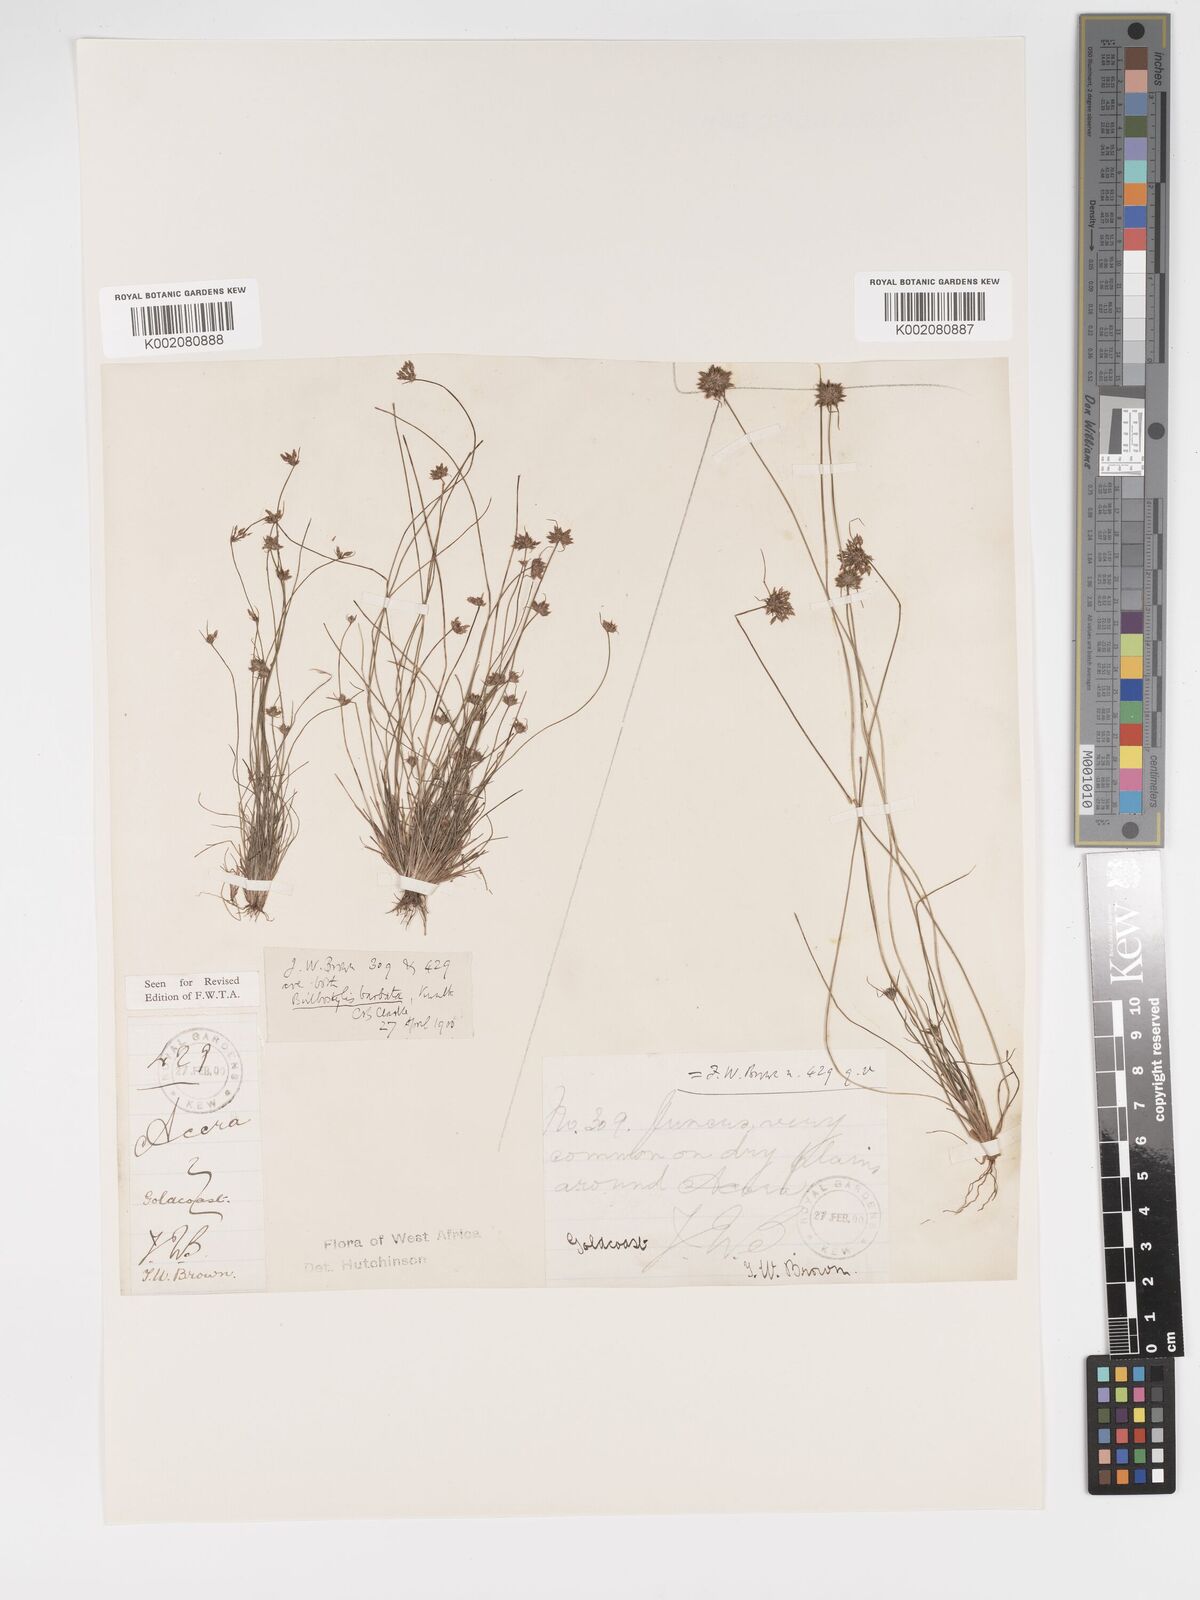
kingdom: Plantae
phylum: Tracheophyta
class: Liliopsida
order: Poales
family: Cyperaceae
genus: Bulbostylis
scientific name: Bulbostylis barbata
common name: Watergrass
